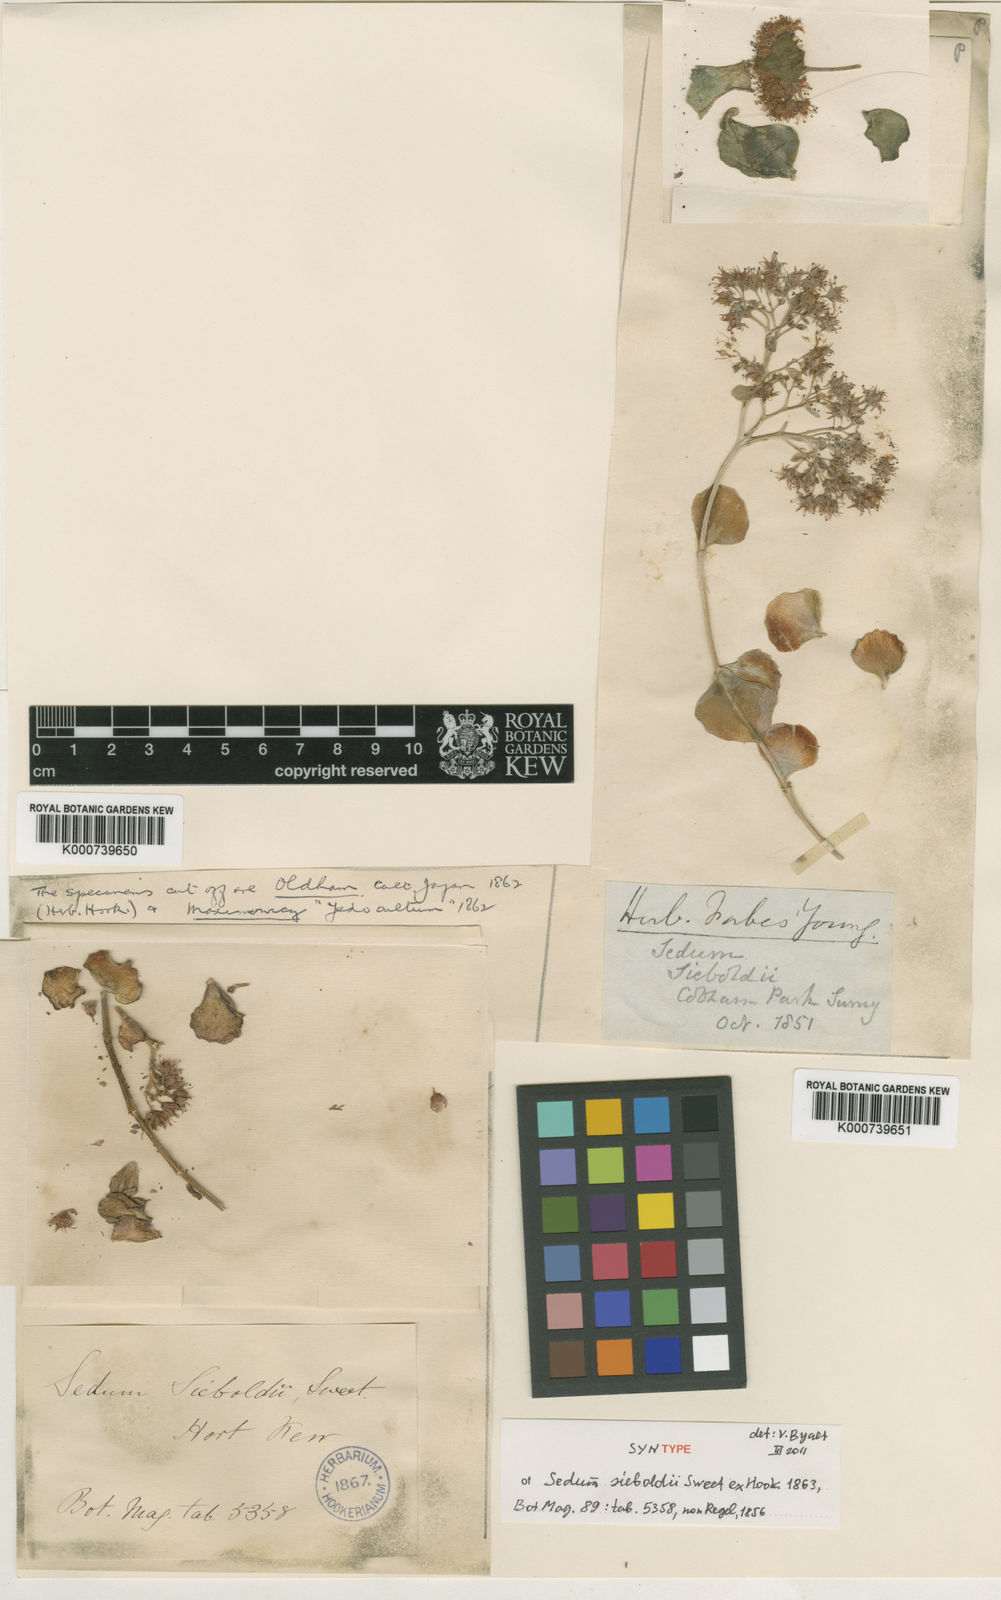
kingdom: Plantae
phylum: Tracheophyta
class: Magnoliopsida
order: Saxifragales
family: Crassulaceae
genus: Sedum
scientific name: Sedum
